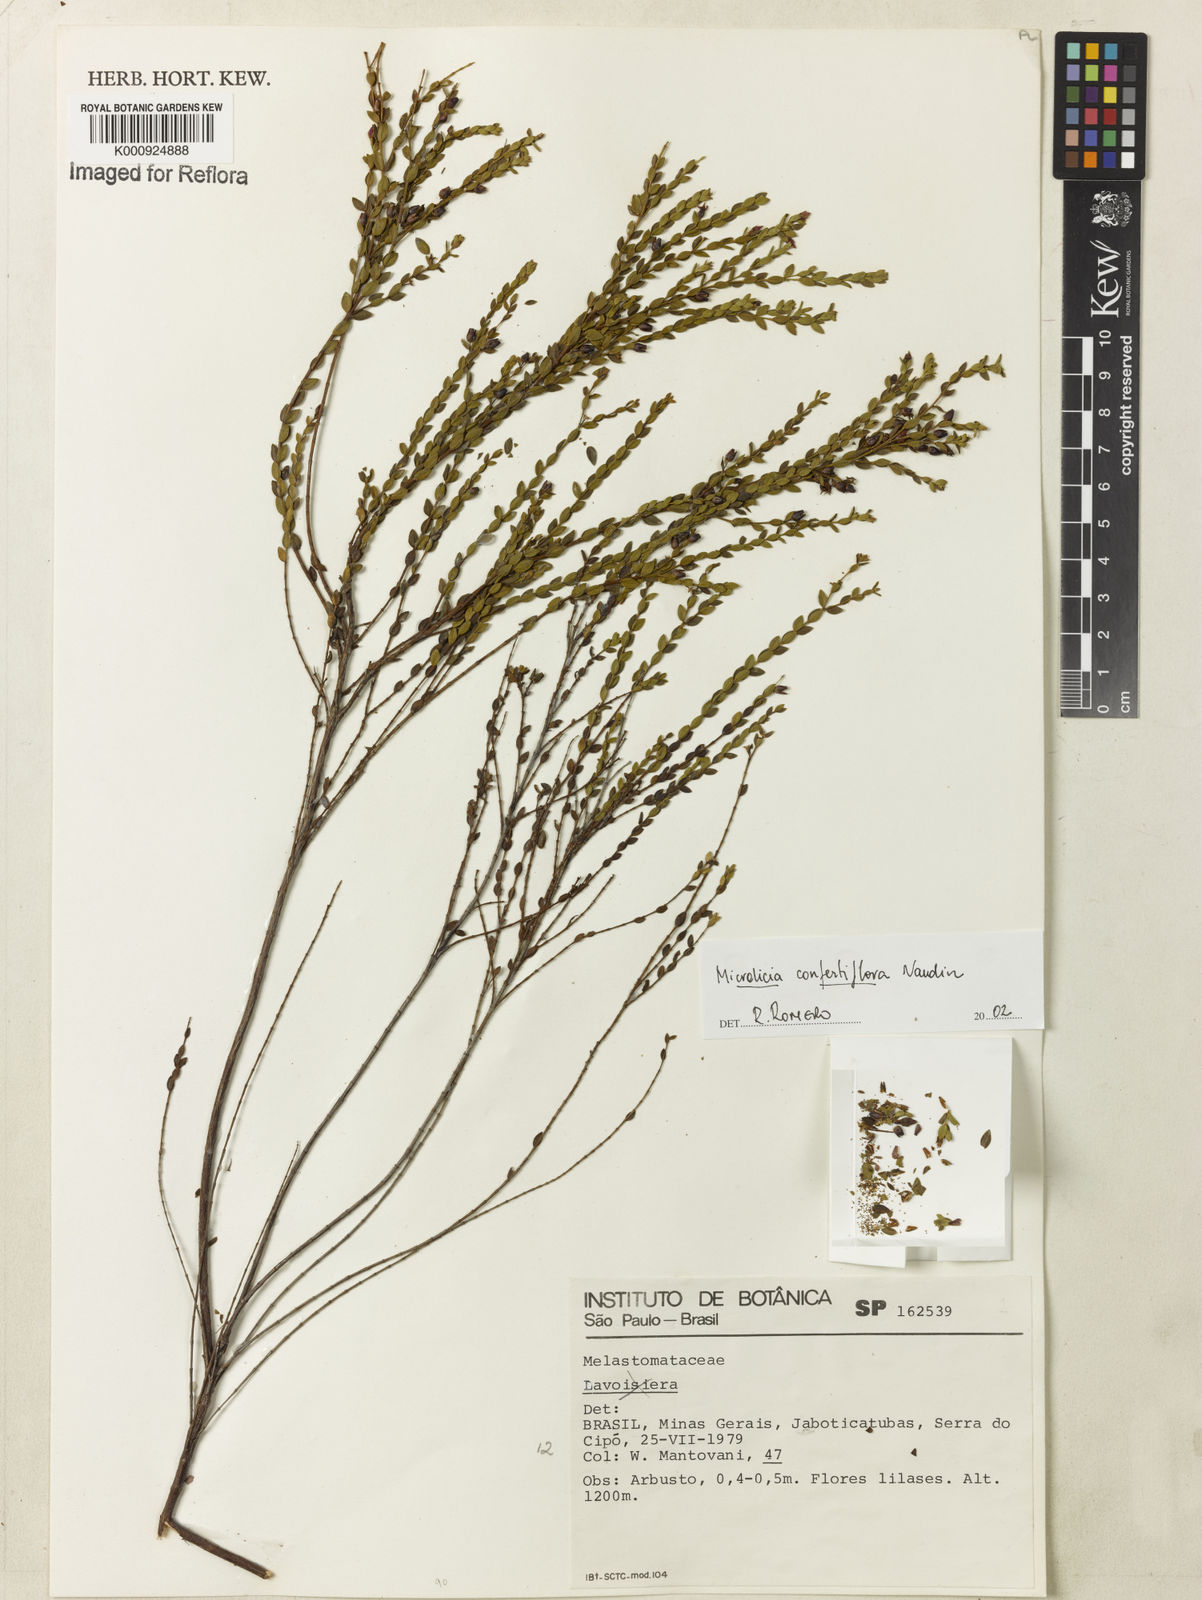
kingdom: Plantae
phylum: Tracheophyta
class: Magnoliopsida
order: Myrtales
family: Melastomataceae
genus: Microlicia
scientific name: Microlicia confertiflora
